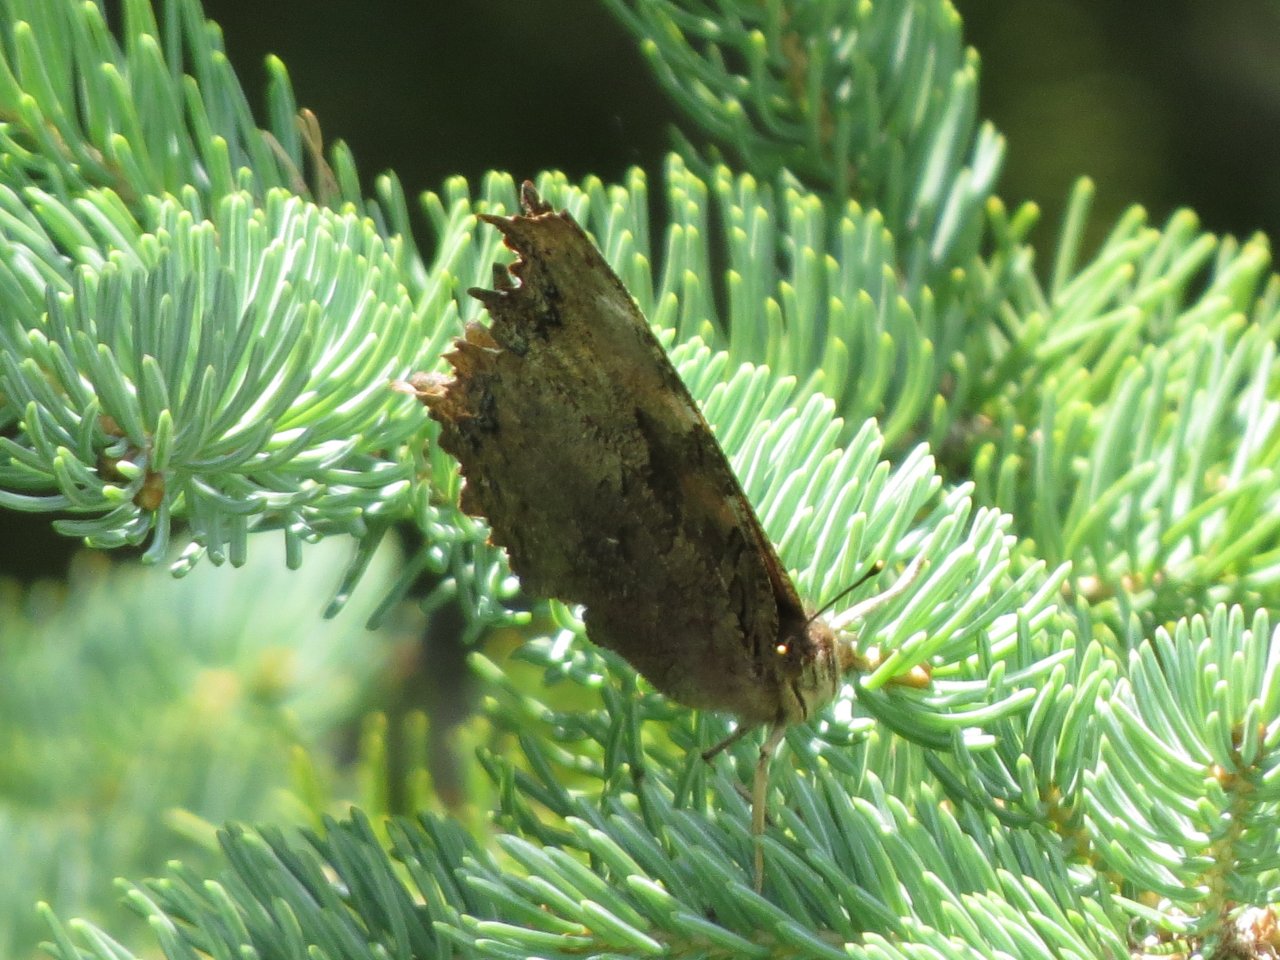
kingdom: Animalia
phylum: Arthropoda
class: Insecta
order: Lepidoptera
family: Nymphalidae
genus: Polygonia
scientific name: Polygonia vaualbum
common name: Compton Tortoiseshell
